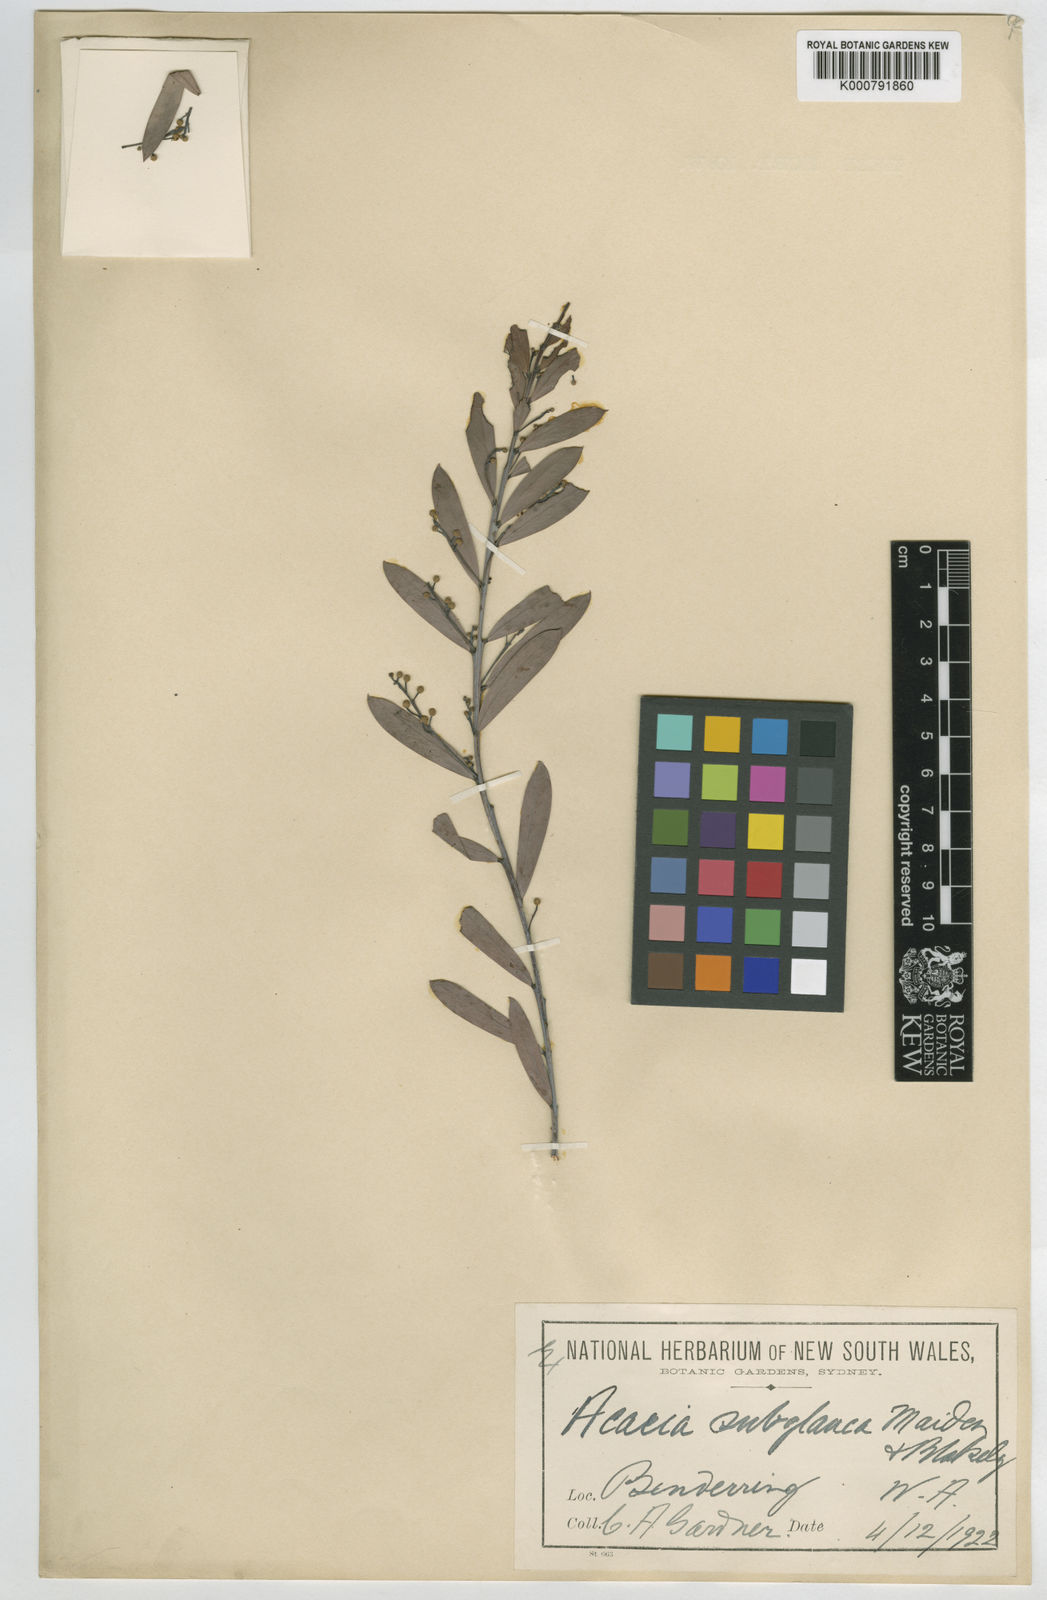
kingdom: Plantae
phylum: Tracheophyta
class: Magnoliopsida
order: Fabales
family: Fabaceae
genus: Acacia
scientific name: Acacia leptopetala
